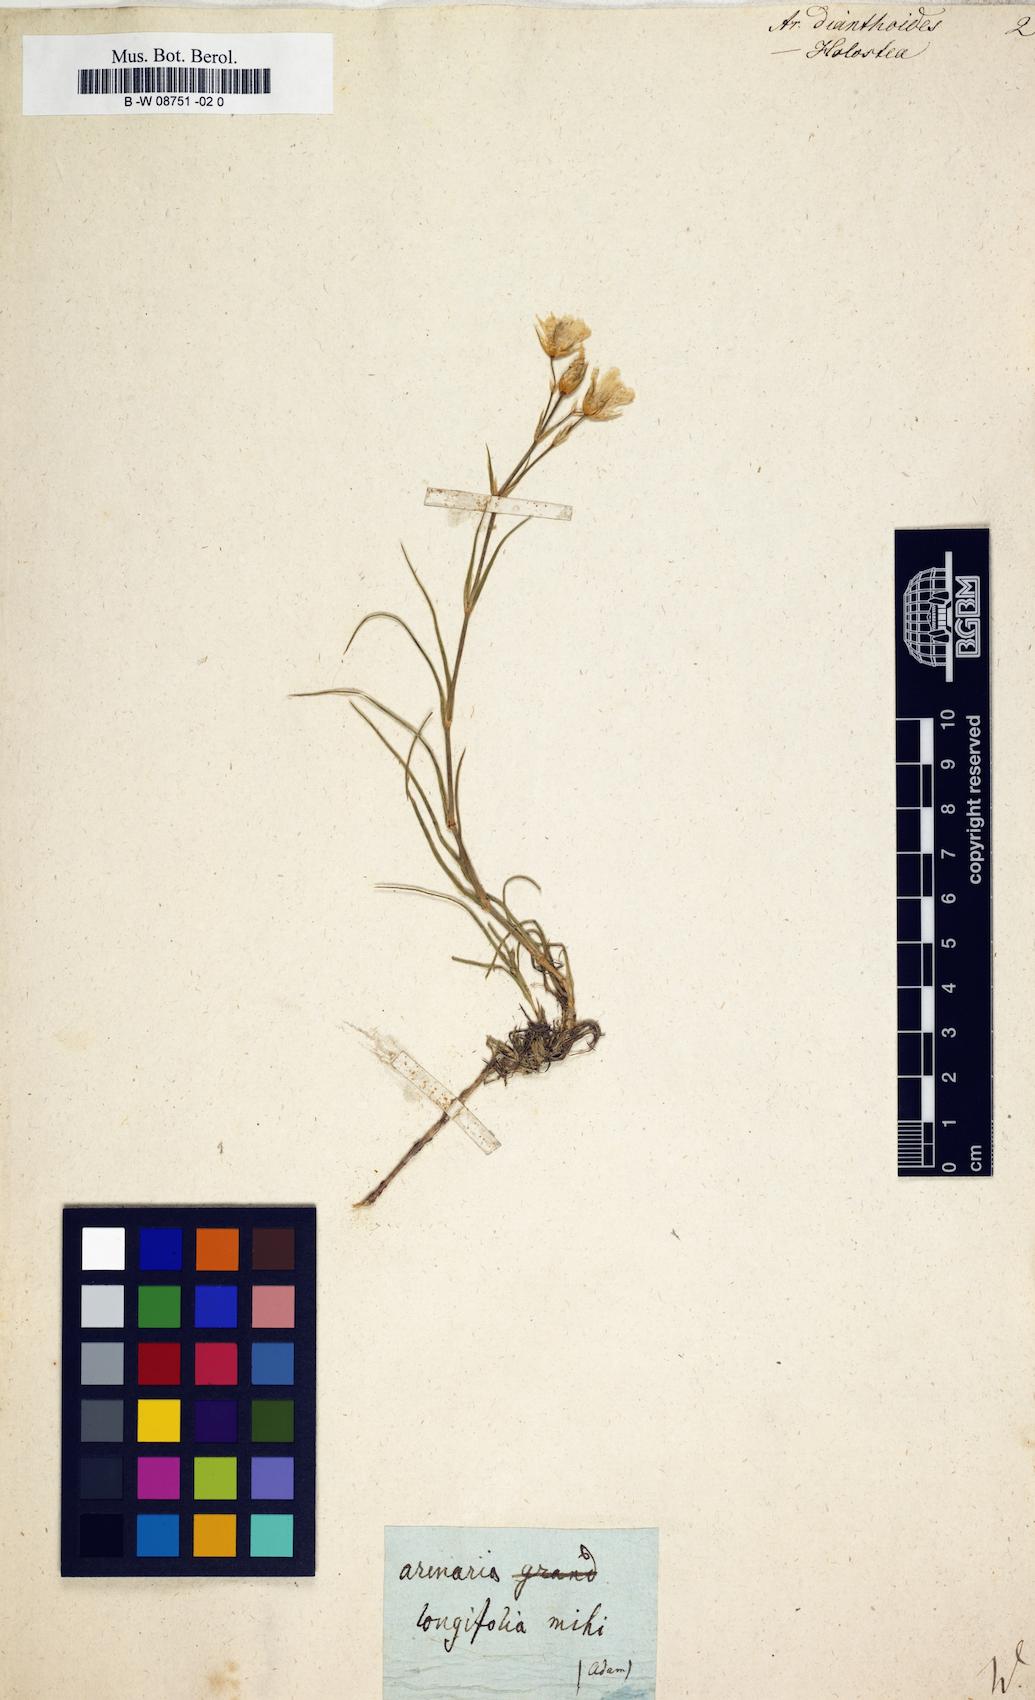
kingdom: Plantae
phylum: Tracheophyta
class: Magnoliopsida
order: Caryophyllales
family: Caryophyllaceae
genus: Eremogone
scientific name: Eremogone dianthoides
